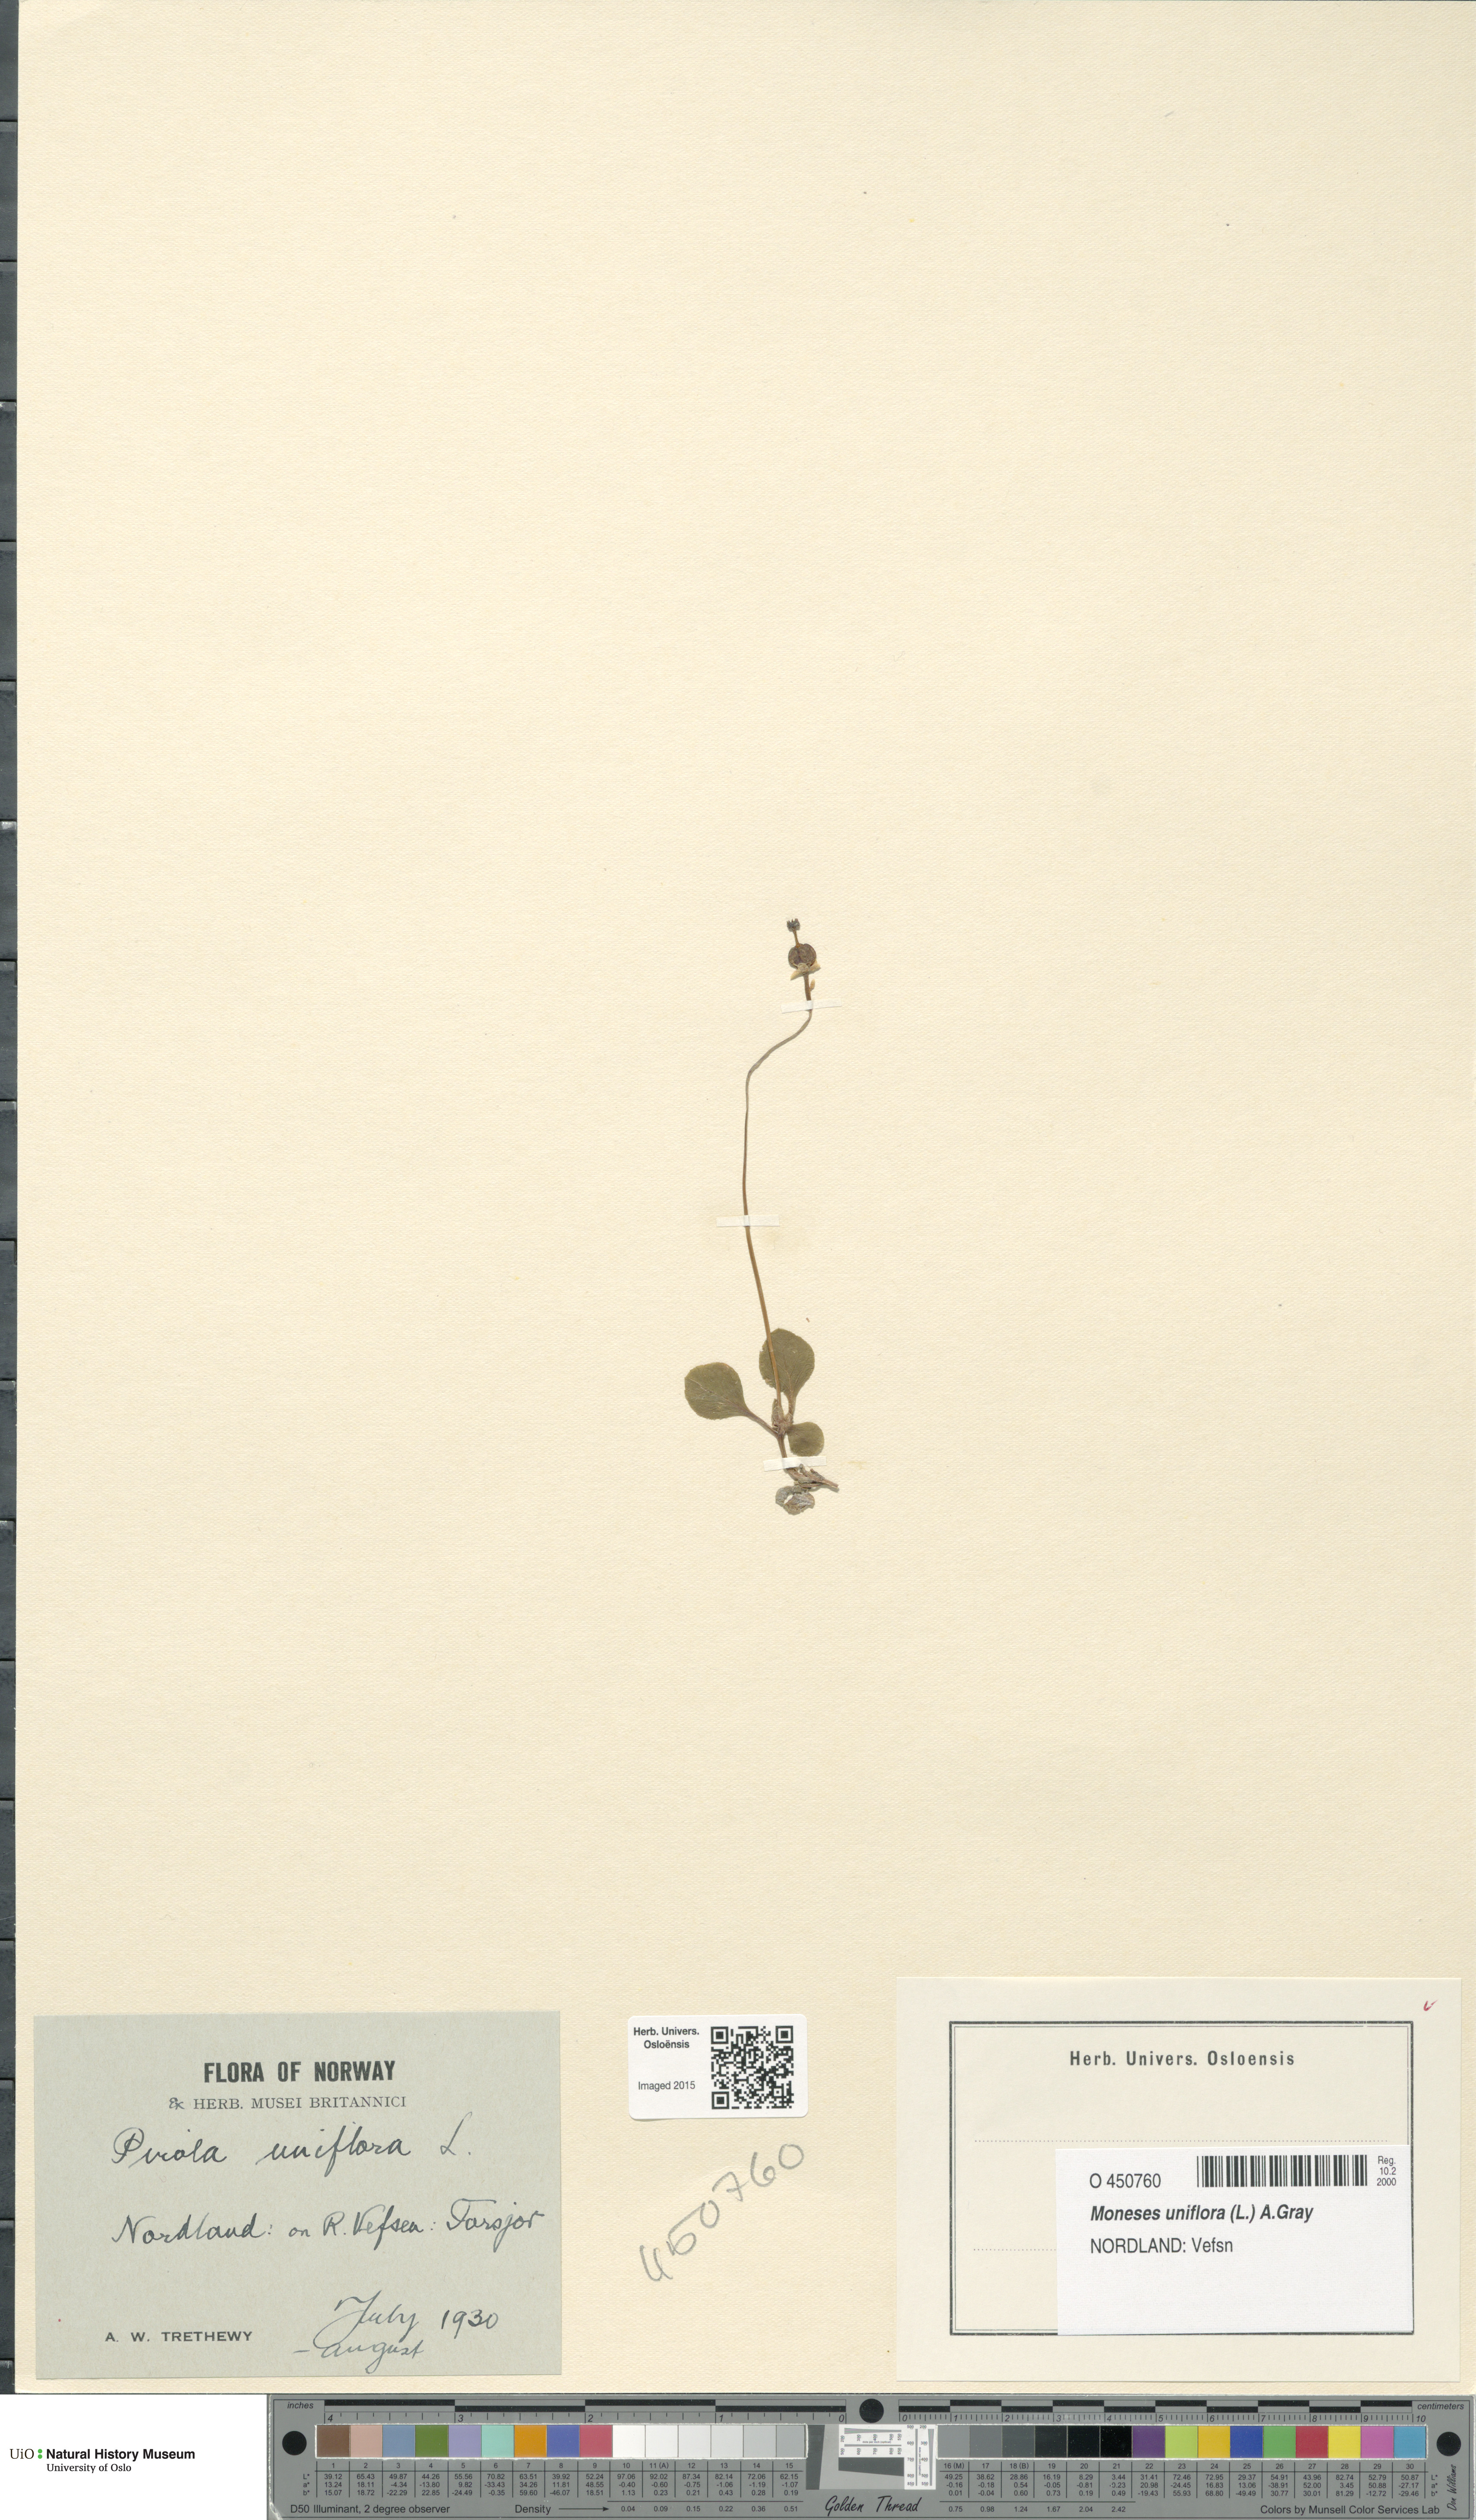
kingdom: Plantae
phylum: Tracheophyta
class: Magnoliopsida
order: Ericales
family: Ericaceae
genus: Moneses
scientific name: Moneses uniflora
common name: One-flowered wintergreen
